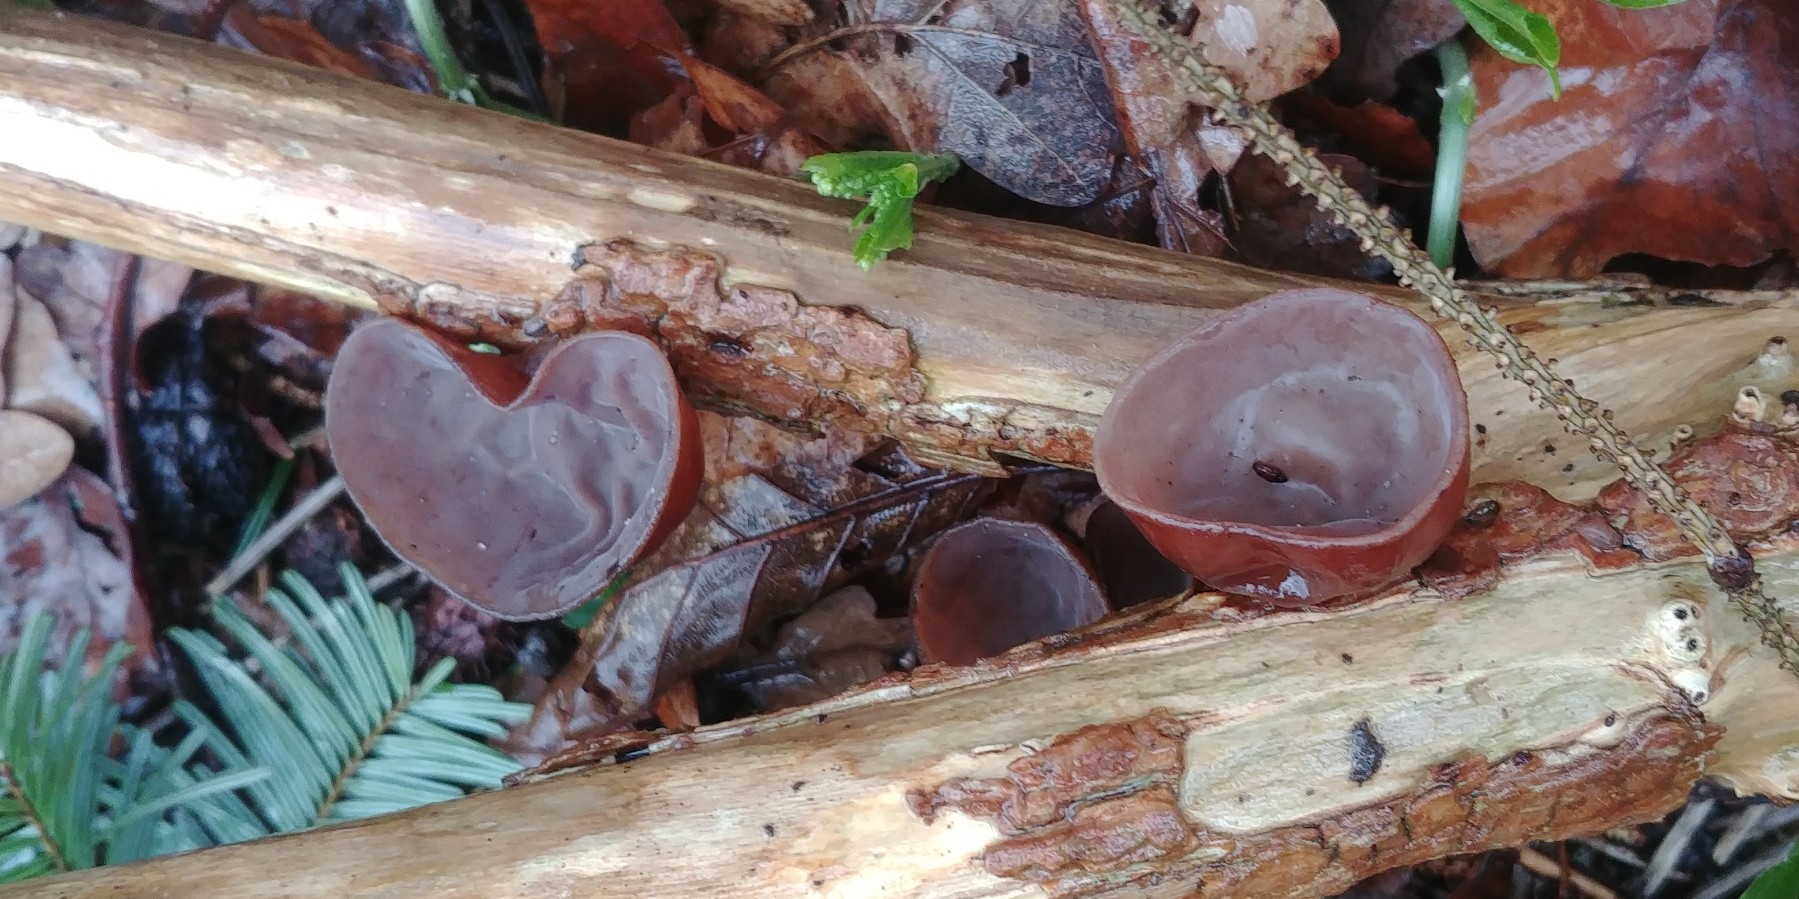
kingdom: Fungi
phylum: Basidiomycota
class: Agaricomycetes
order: Auriculariales
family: Auriculariaceae
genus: Auricularia
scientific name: Auricularia auricula-judae
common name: almindelig judasøre
